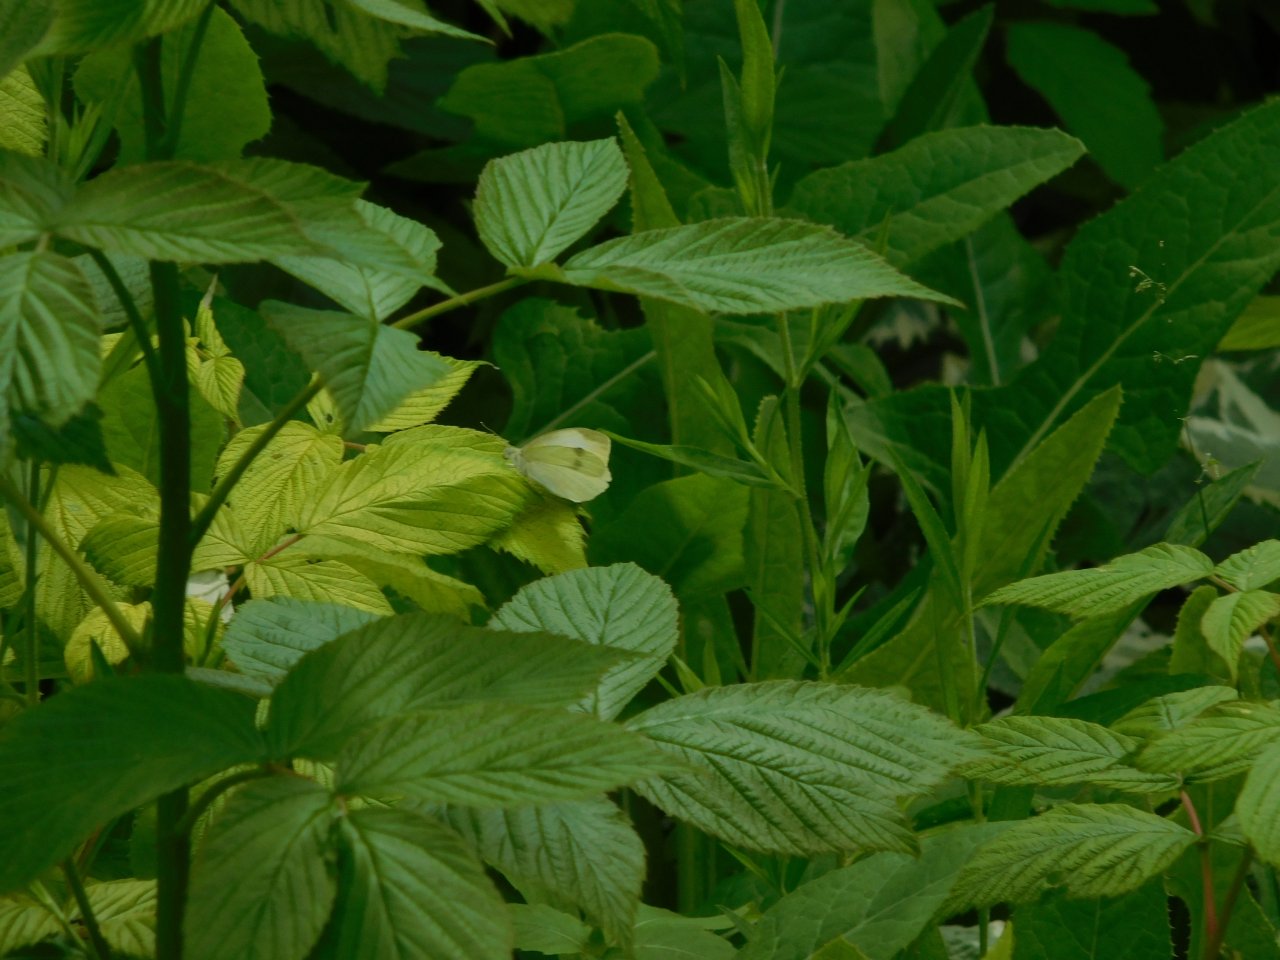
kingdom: Animalia
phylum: Arthropoda
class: Insecta
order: Lepidoptera
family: Pieridae
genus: Pieris
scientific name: Pieris rapae
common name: Cabbage White
